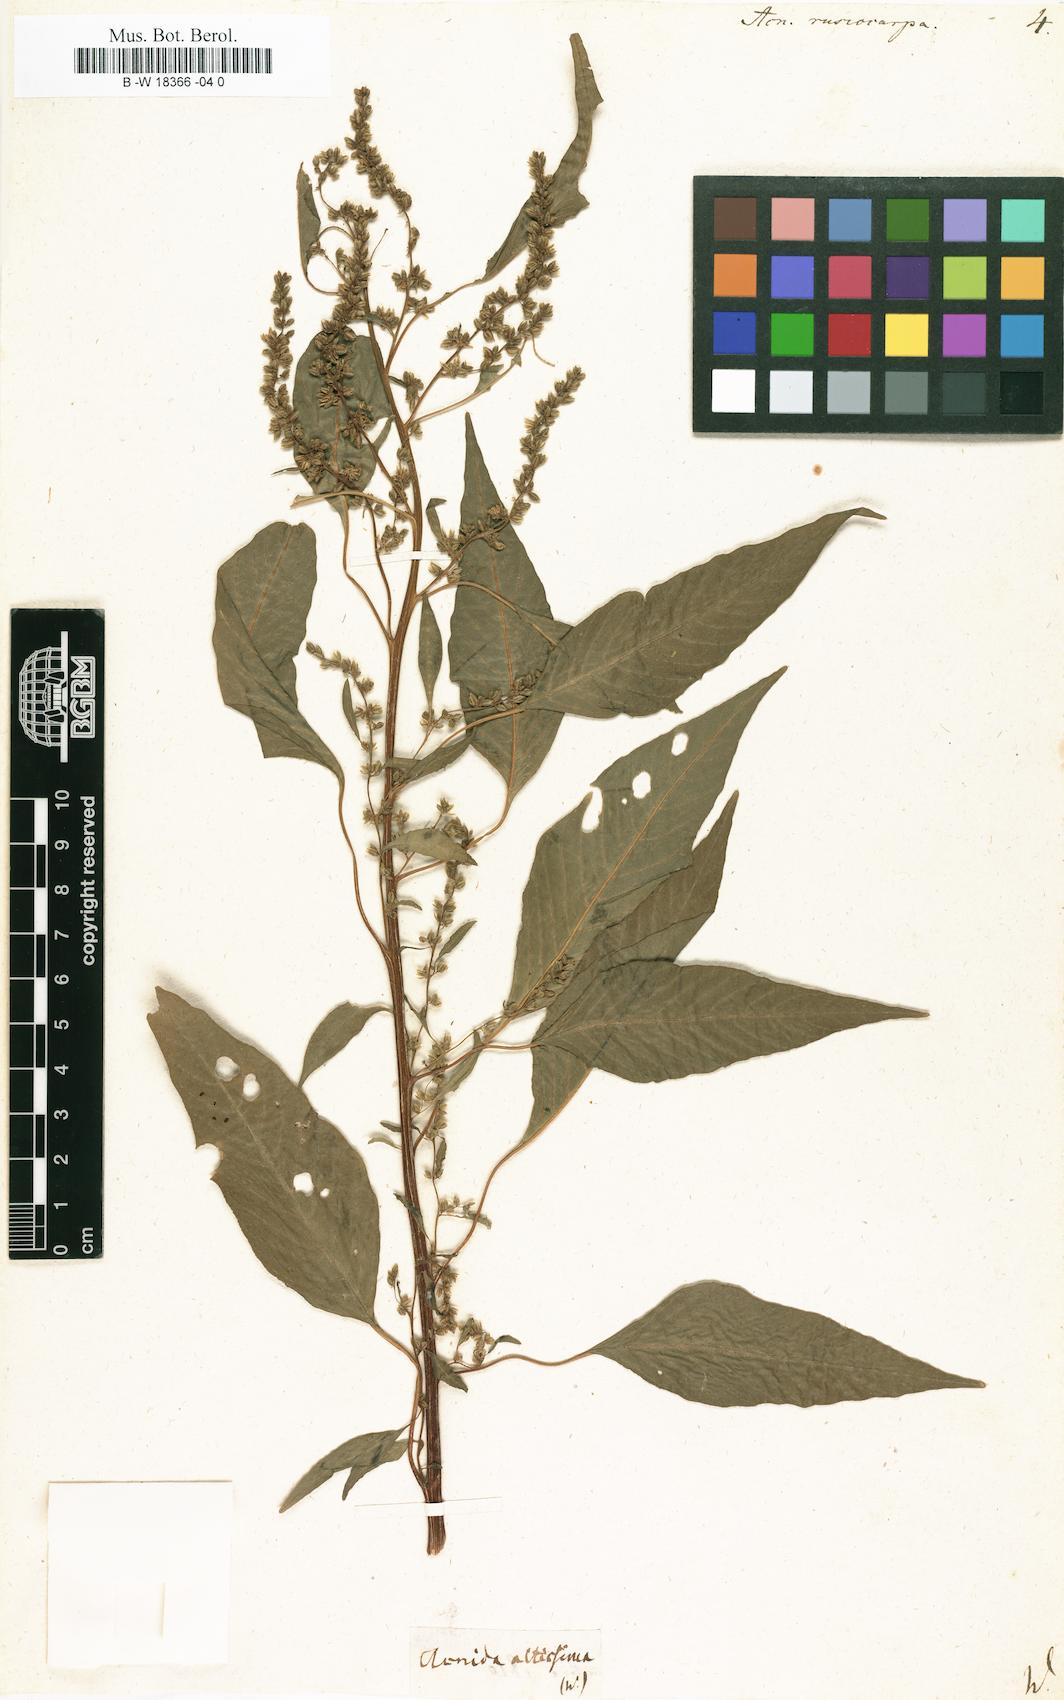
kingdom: Plantae
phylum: Tracheophyta
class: Magnoliopsida
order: Caryophyllales
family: Amaranthaceae
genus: Amaranthus
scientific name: Amaranthus cannabinus
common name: Salt-marsh water-hemp
